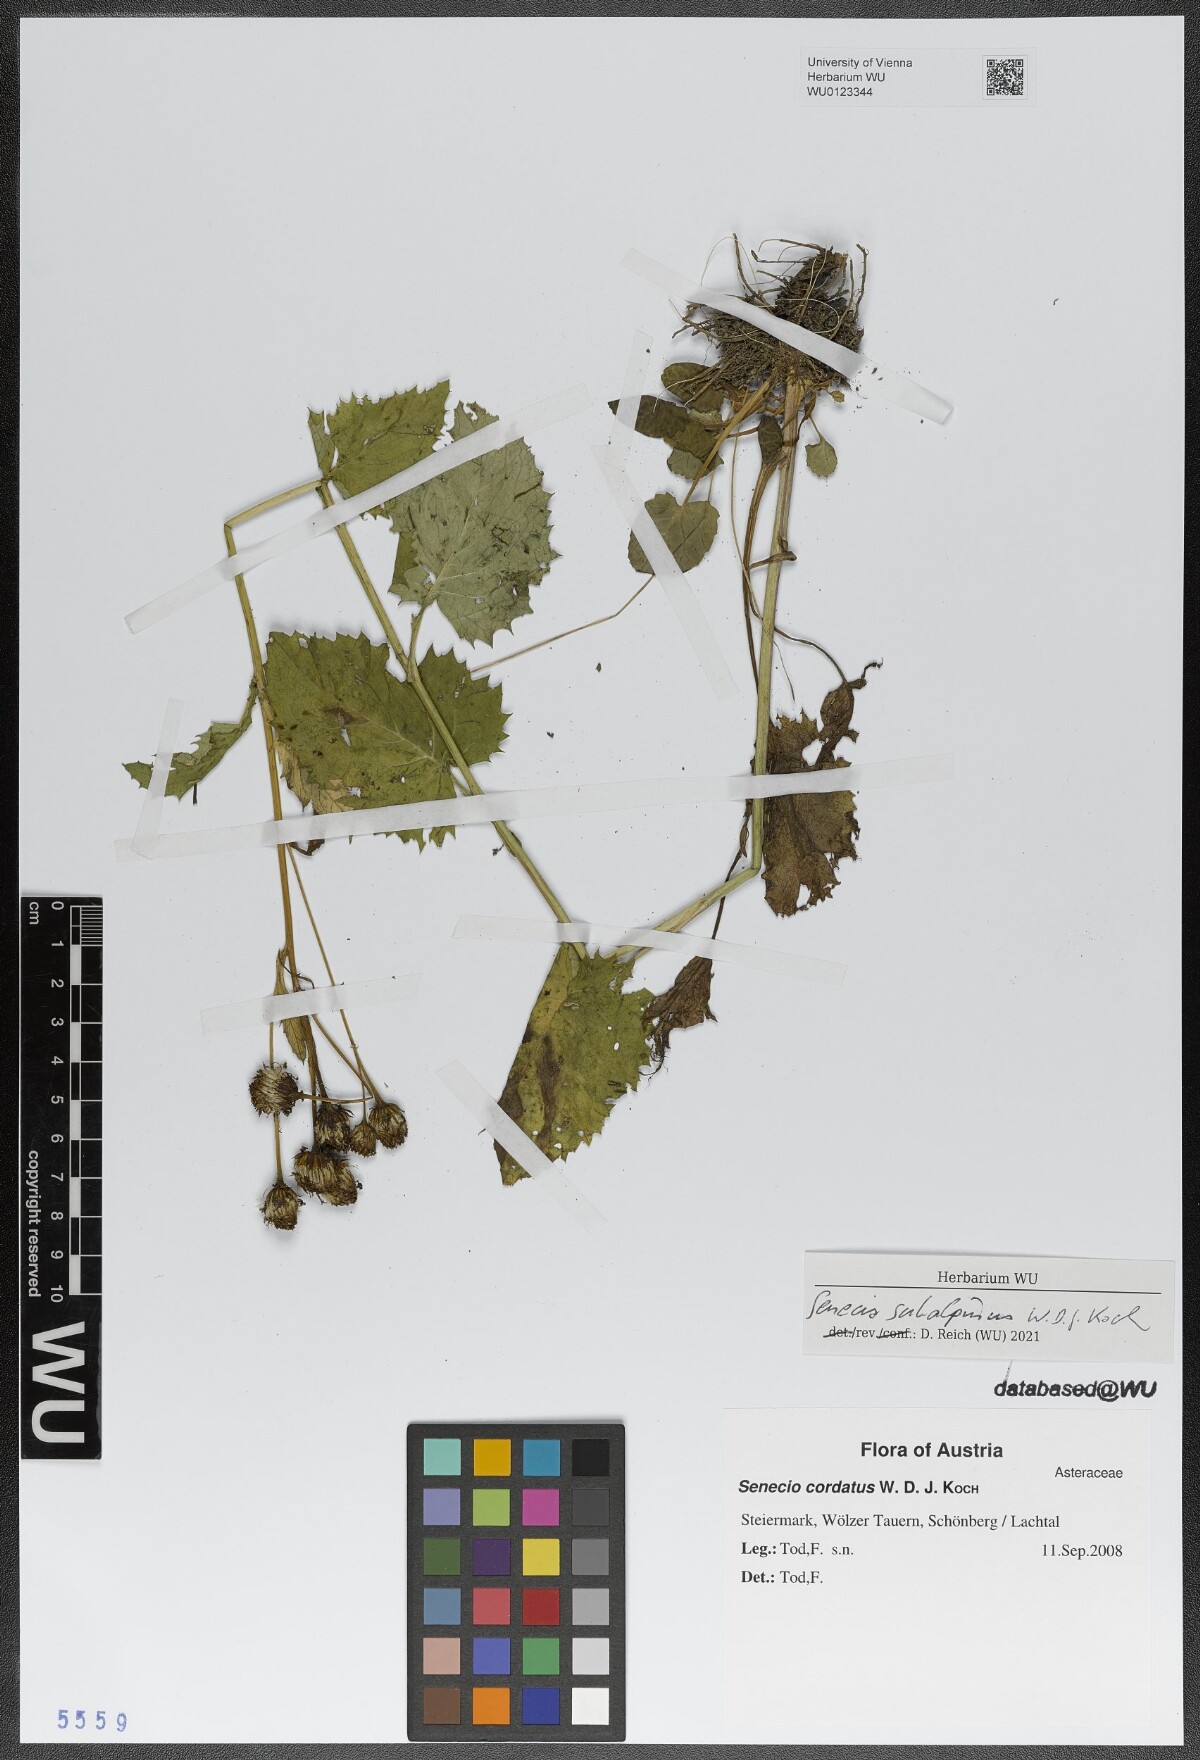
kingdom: Plantae
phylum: Tracheophyta
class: Magnoliopsida
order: Asterales
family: Asteraceae
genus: Jacobaea
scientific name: Jacobaea subalpina
